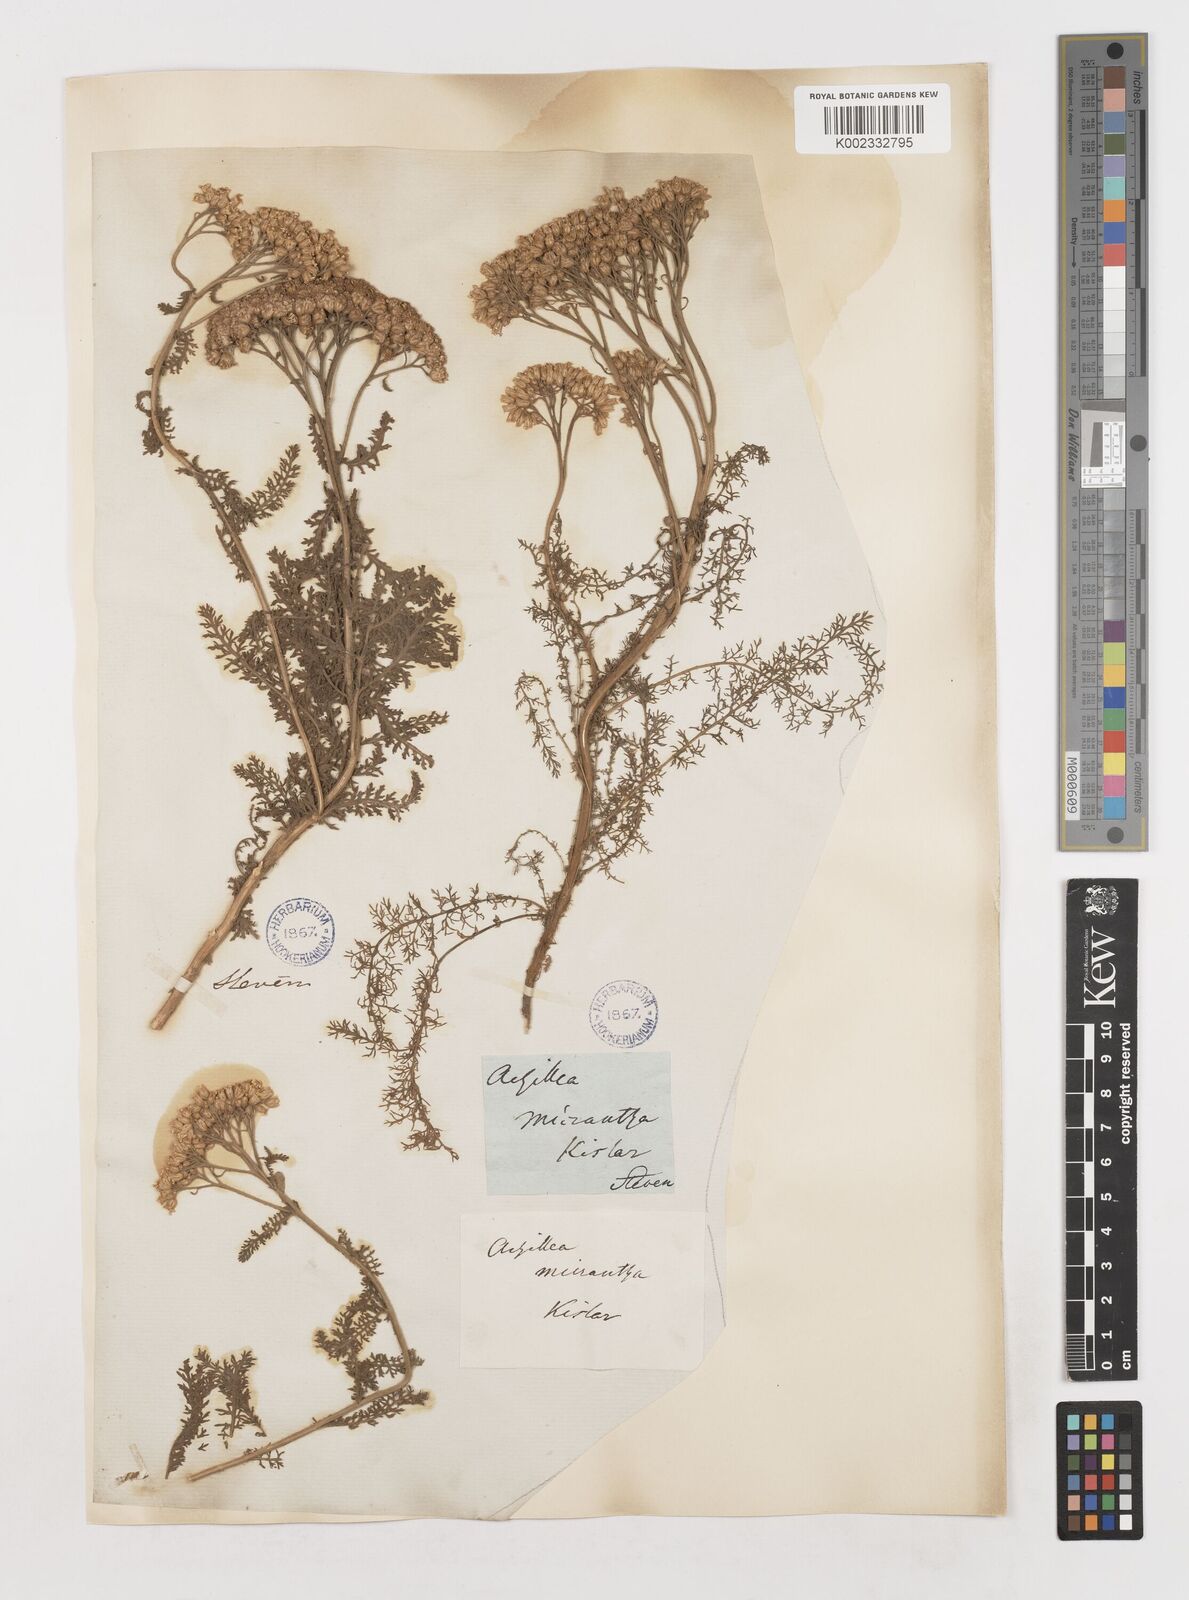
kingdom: Plantae
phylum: Tracheophyta
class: Magnoliopsida
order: Asterales
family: Asteraceae
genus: Achillea
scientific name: Achillea arabica
